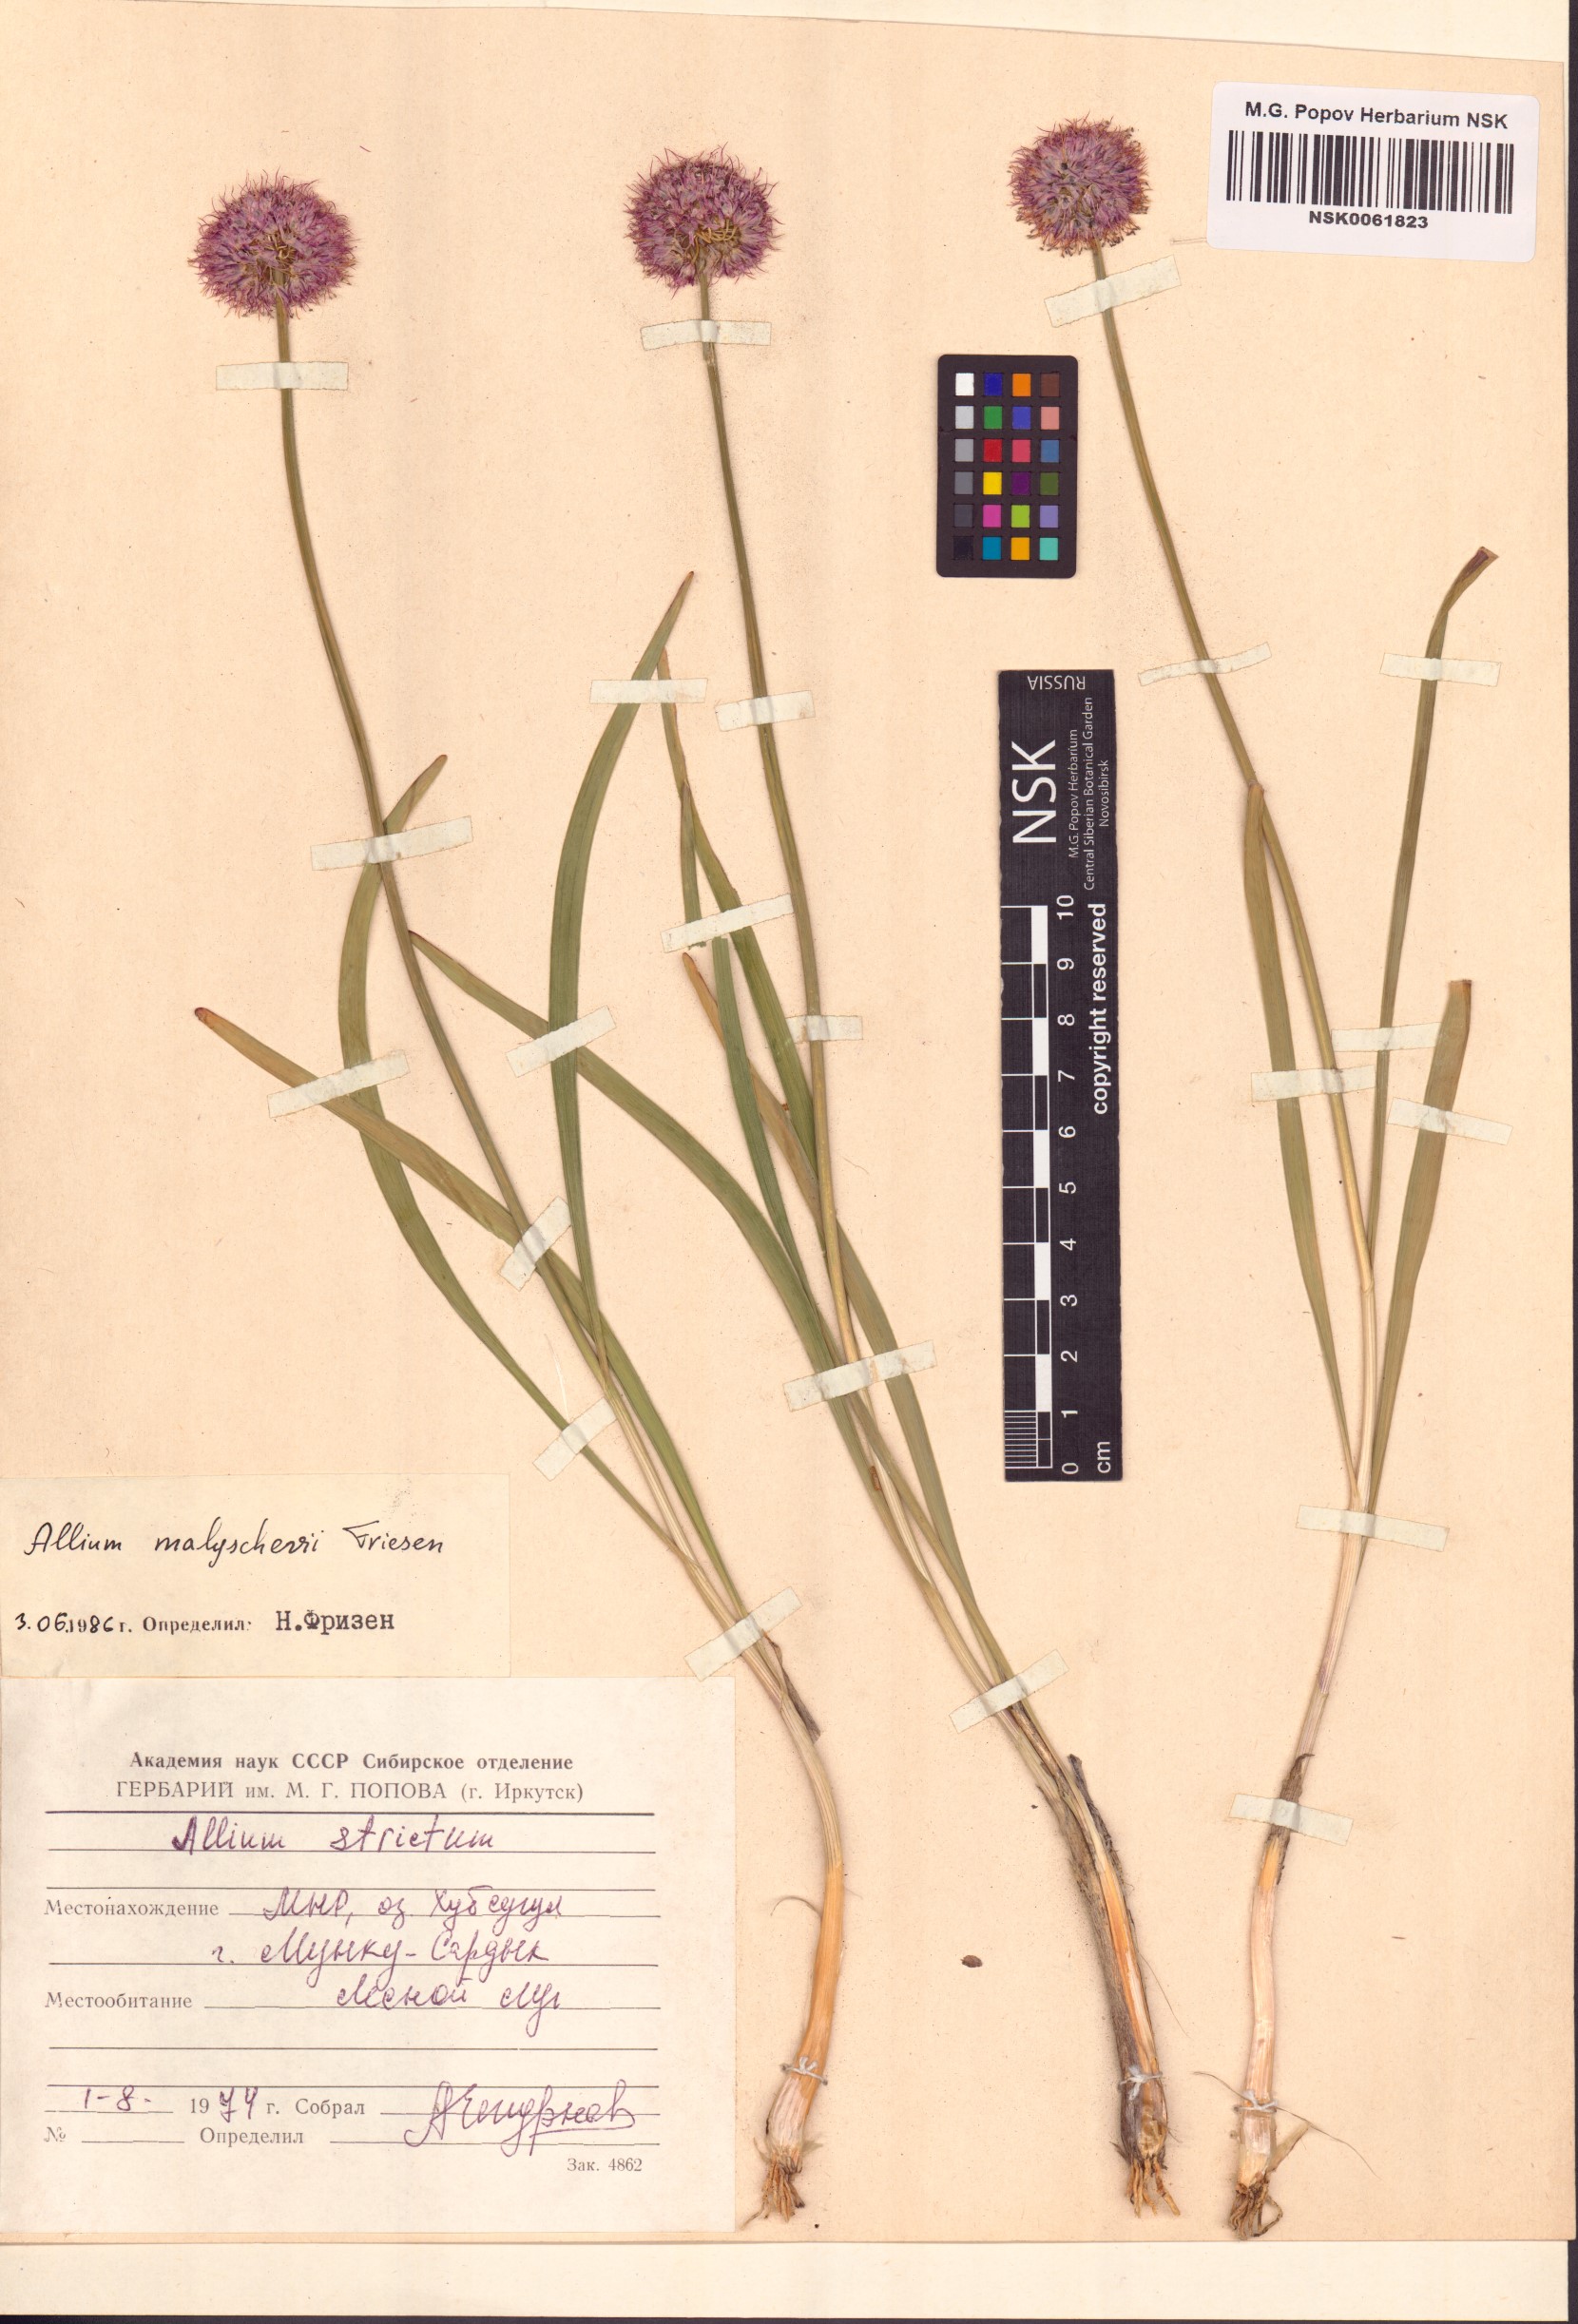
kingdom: Plantae
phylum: Tracheophyta
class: Liliopsida
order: Asparagales
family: Amaryllidaceae
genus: Allium
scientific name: Allium malyschevii
